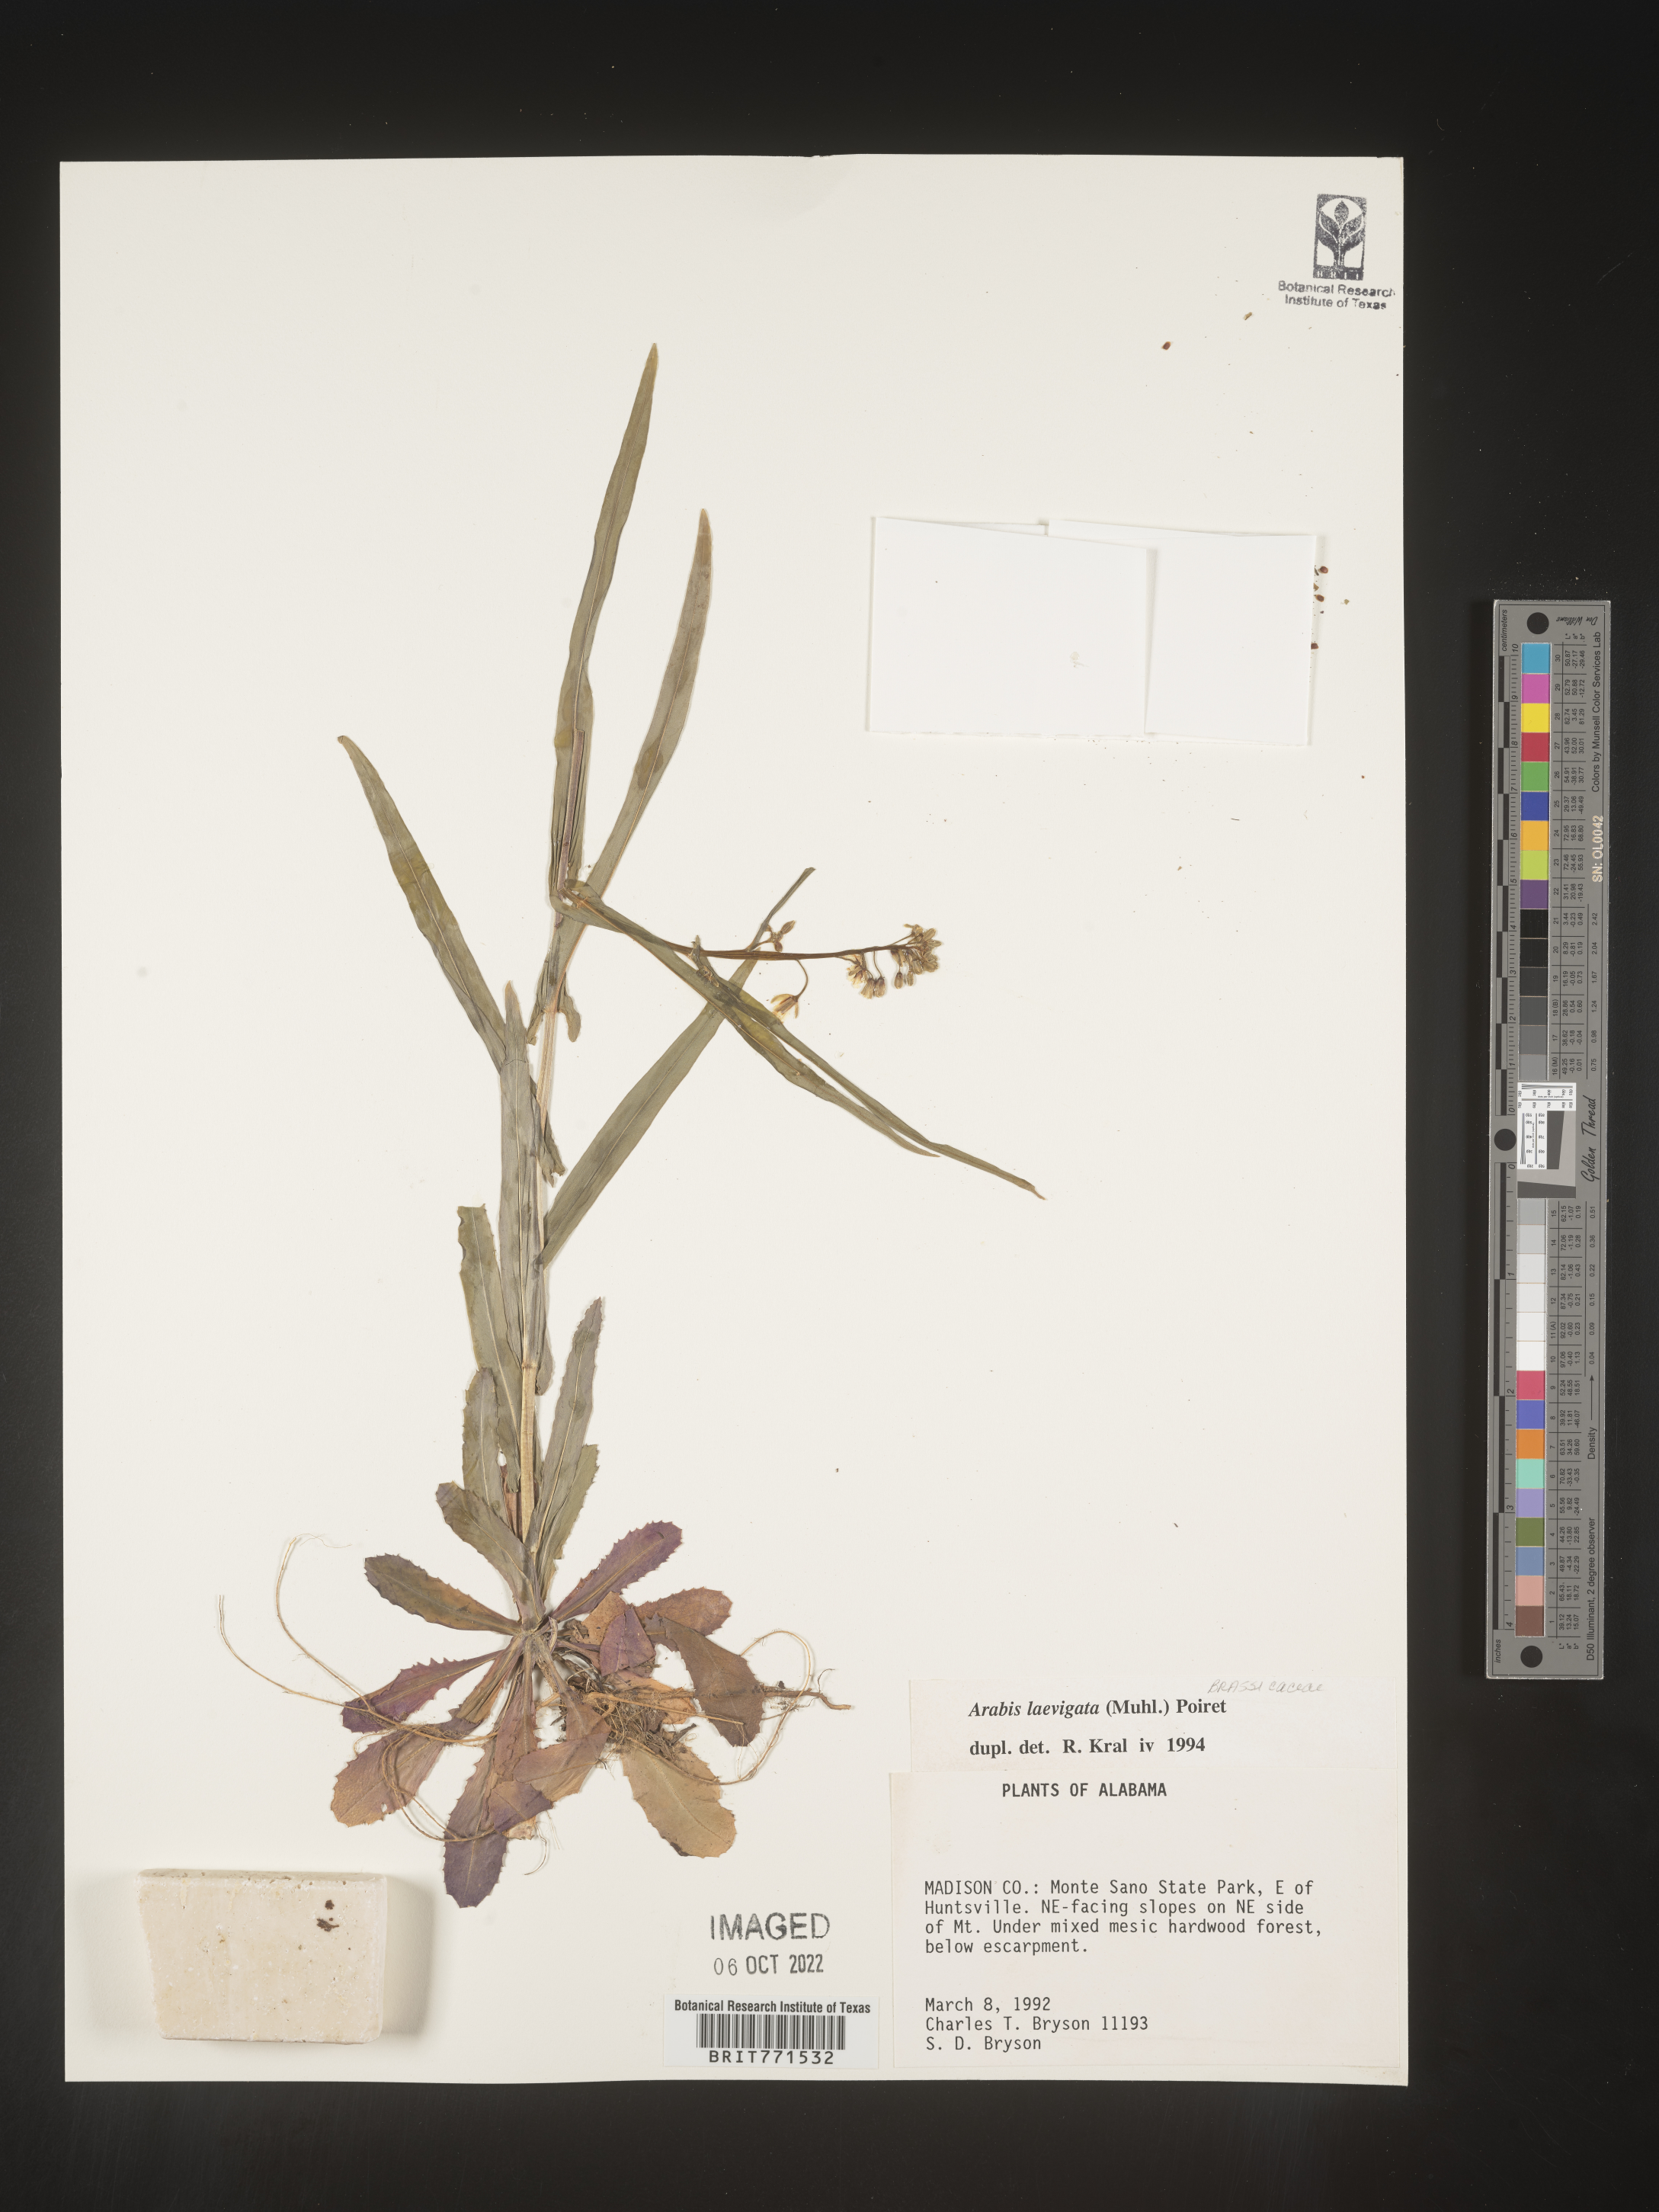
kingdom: Plantae
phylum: Tracheophyta
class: Magnoliopsida
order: Brassicales
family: Brassicaceae
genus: Arabis
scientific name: Arabis laevigata
